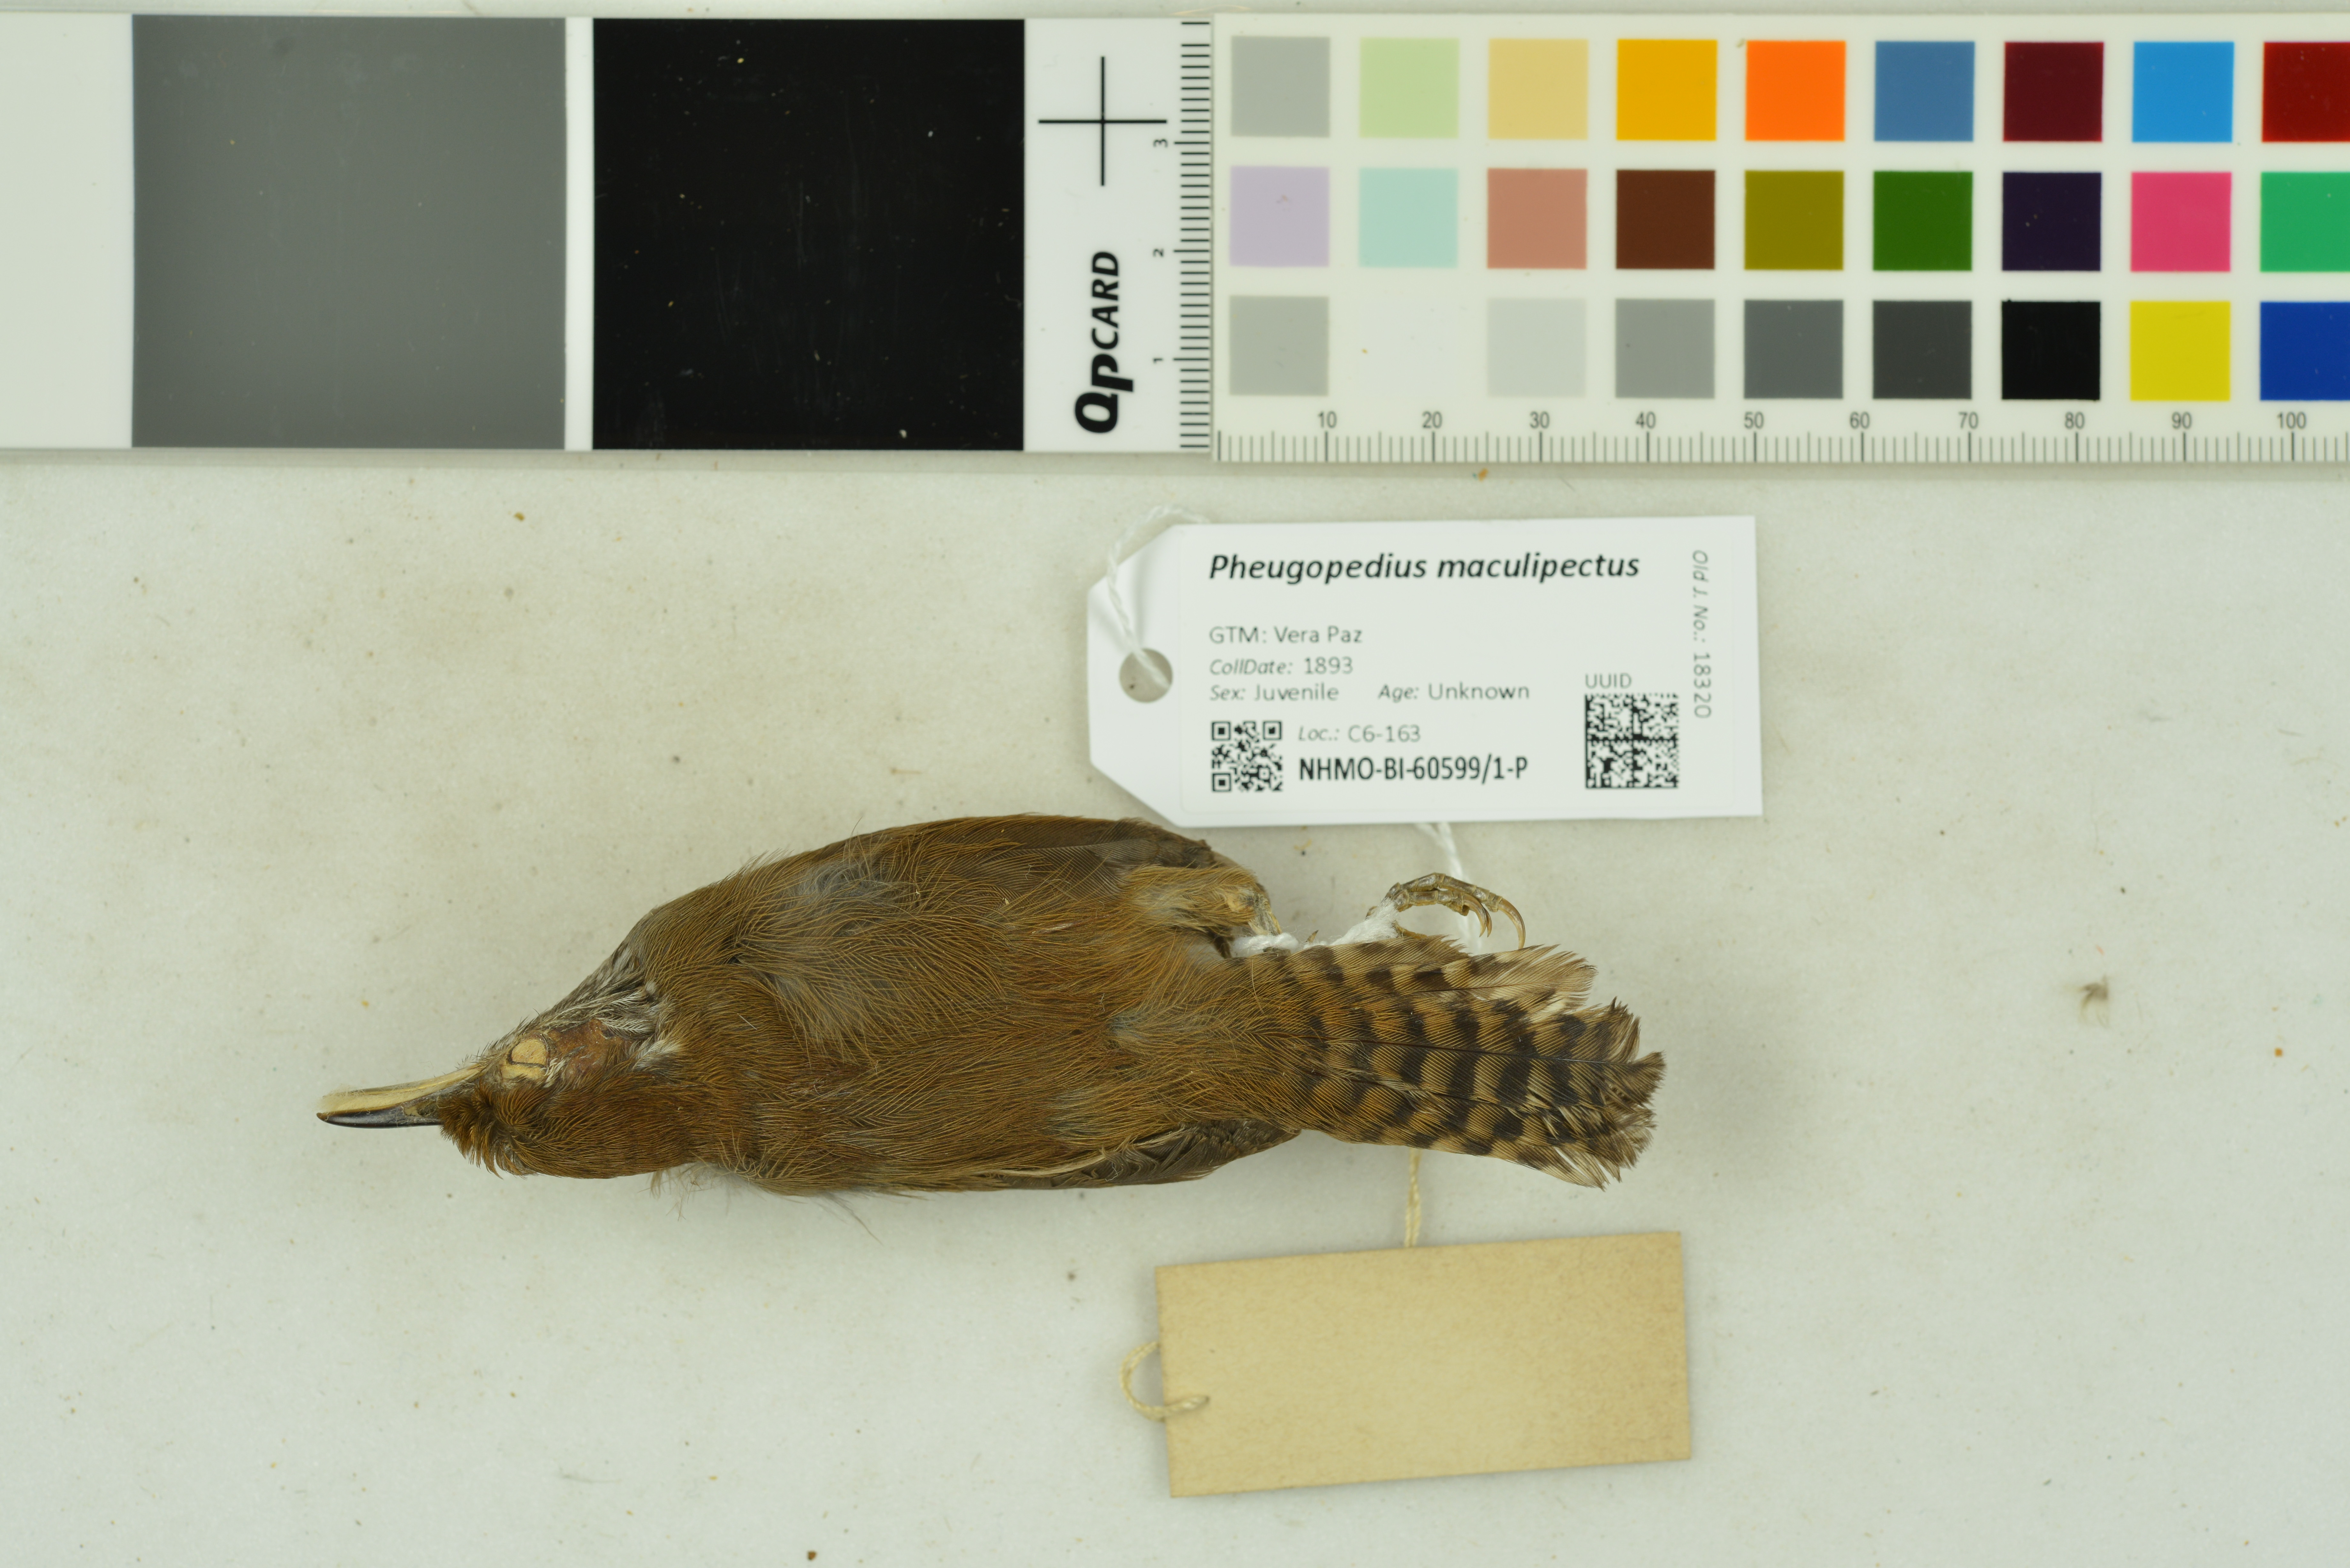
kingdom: Animalia
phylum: Chordata
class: Aves
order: Passeriformes
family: Troglodytidae
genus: Pheugopedius
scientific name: Pheugopedius maculipectus
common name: Spot-breasted wren
